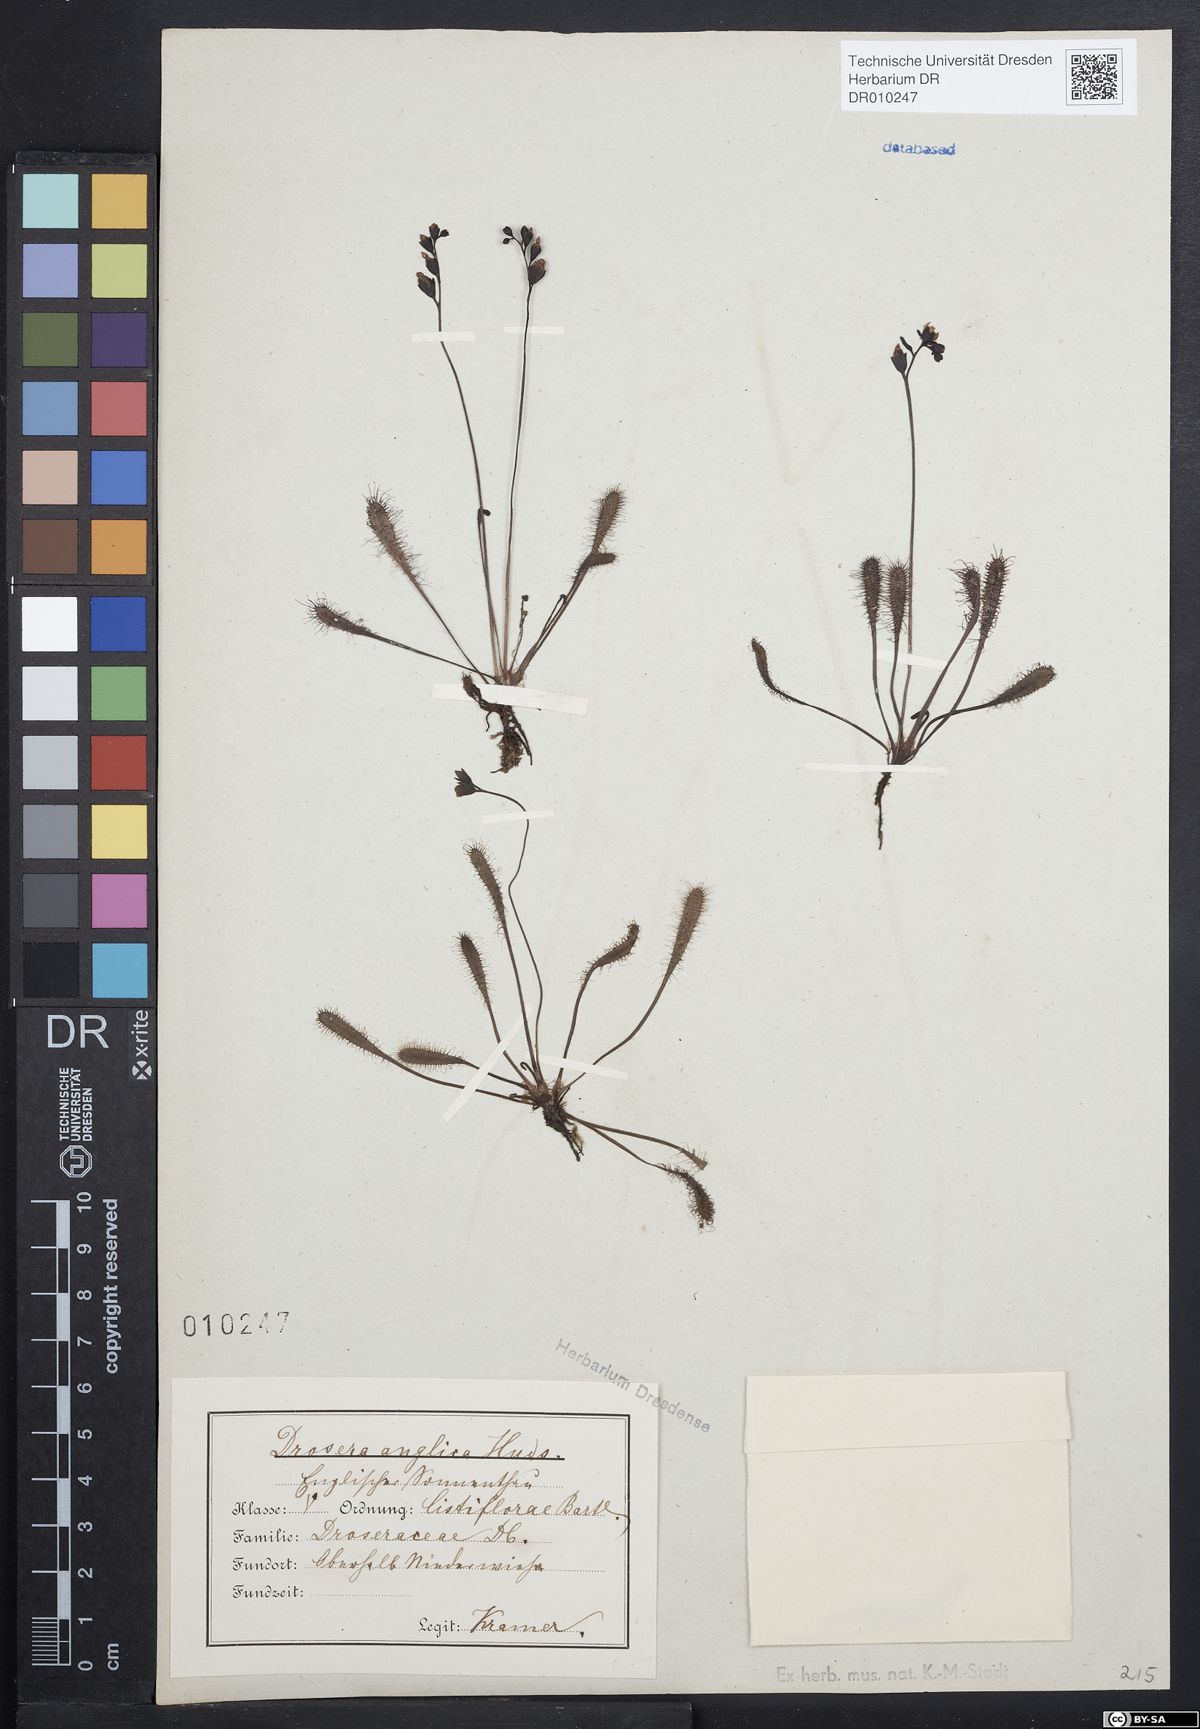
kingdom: Plantae
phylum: Tracheophyta
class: Magnoliopsida
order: Caryophyllales
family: Droseraceae
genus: Drosera
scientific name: Drosera anglica
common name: Great sundew
